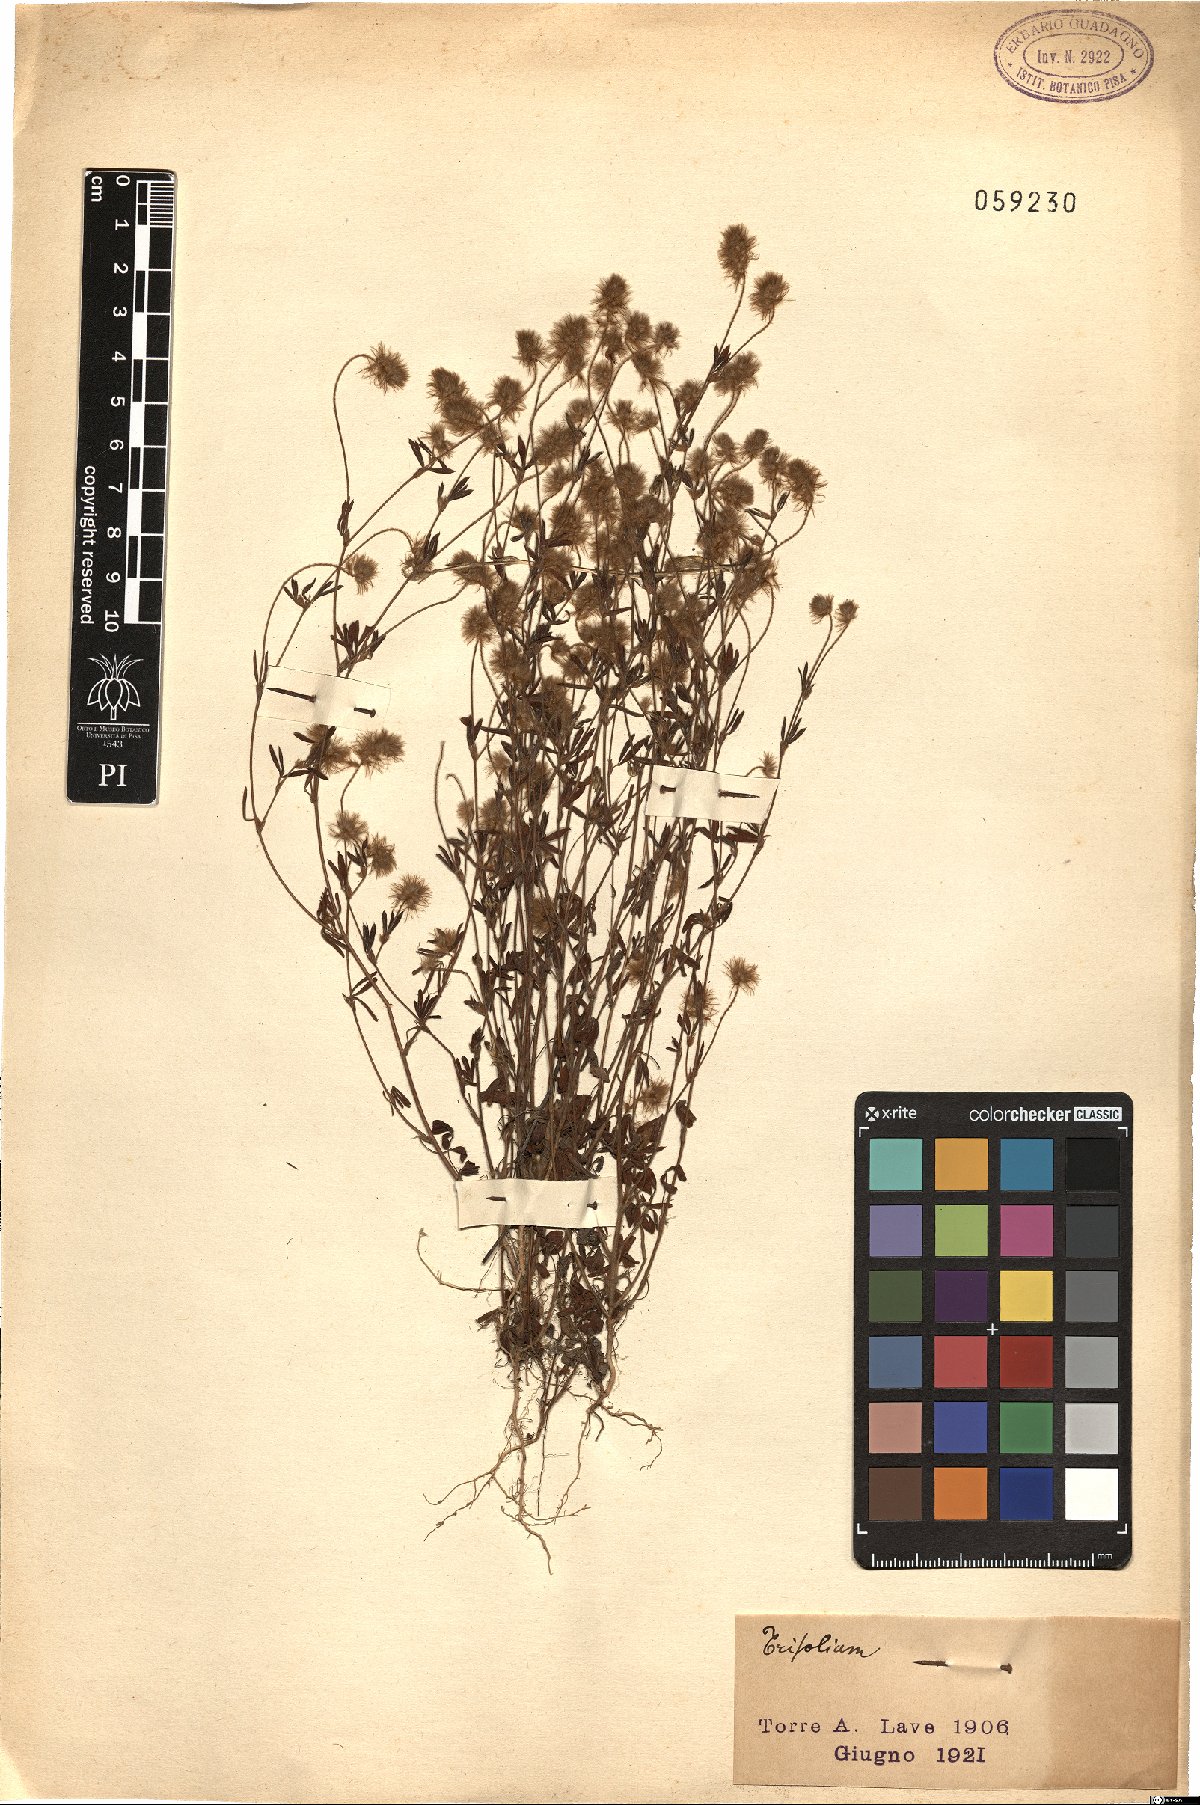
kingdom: Plantae
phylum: Tracheophyta
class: Magnoliopsida
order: Fabales
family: Fabaceae
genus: Trifolium
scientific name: Trifolium
